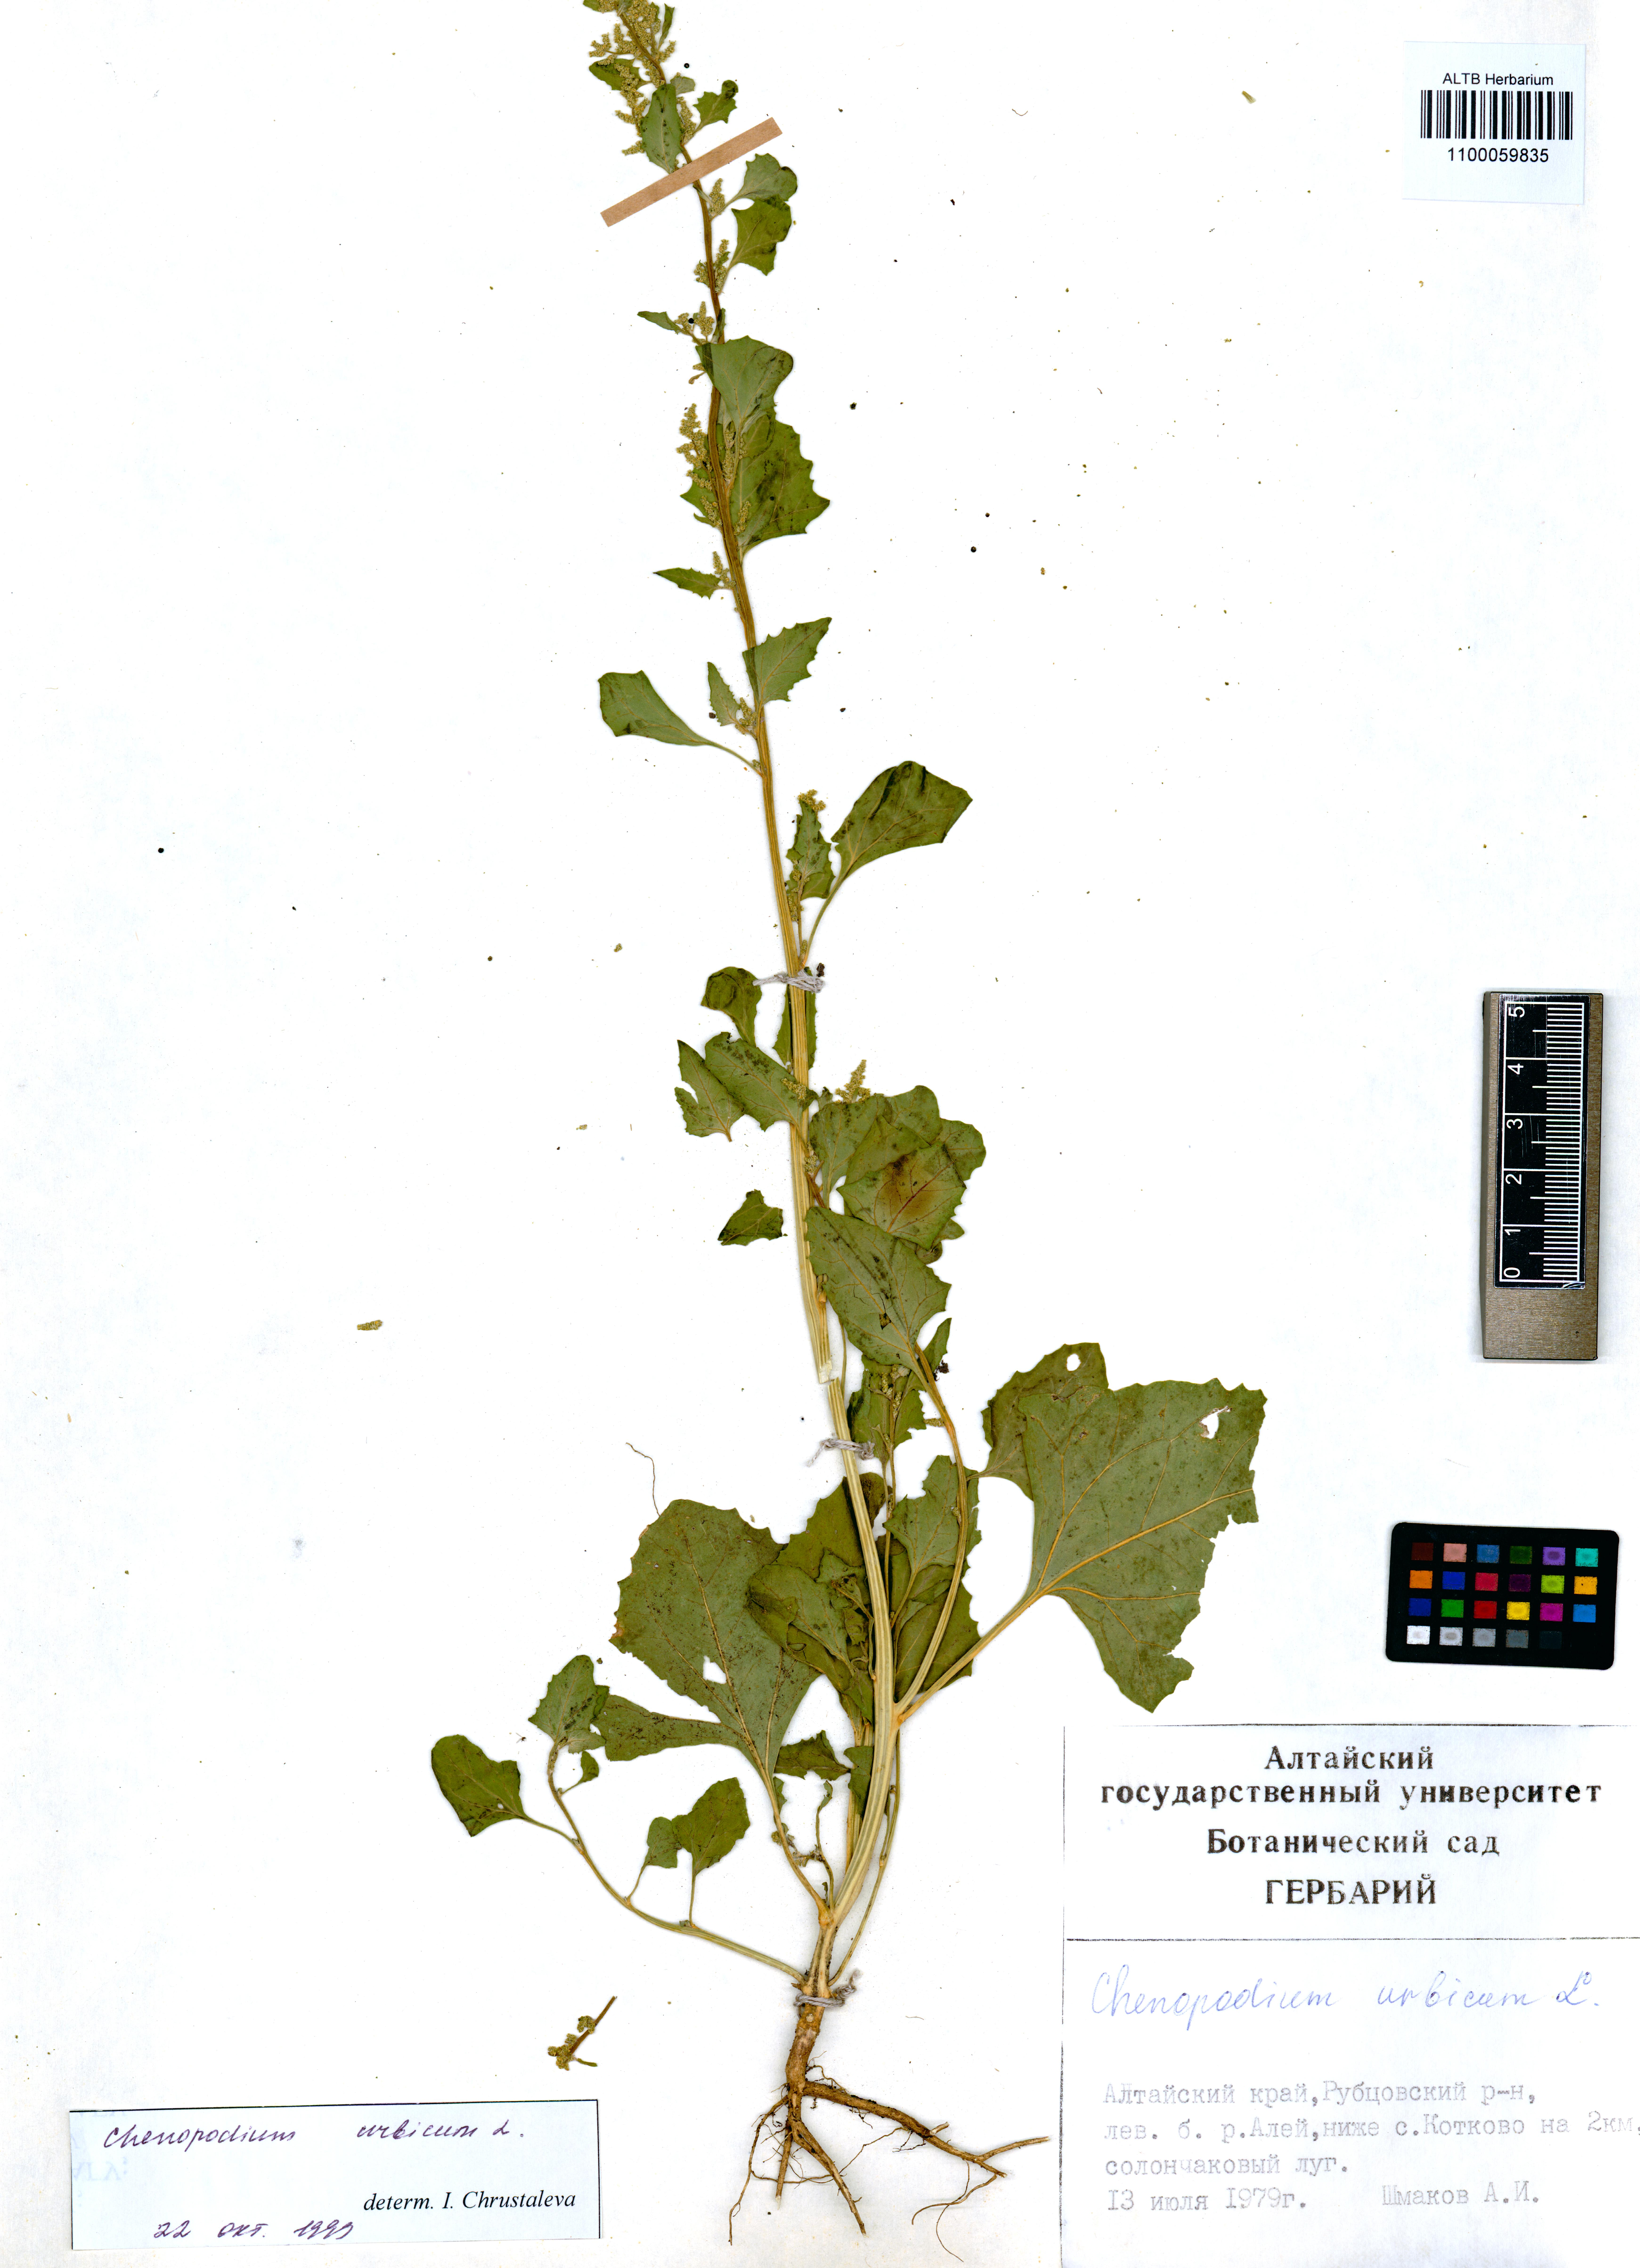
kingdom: Plantae
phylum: Tracheophyta
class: Magnoliopsida
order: Caryophyllales
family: Amaranthaceae
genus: Oxybasis
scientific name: Oxybasis urbica
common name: City goosefoot
